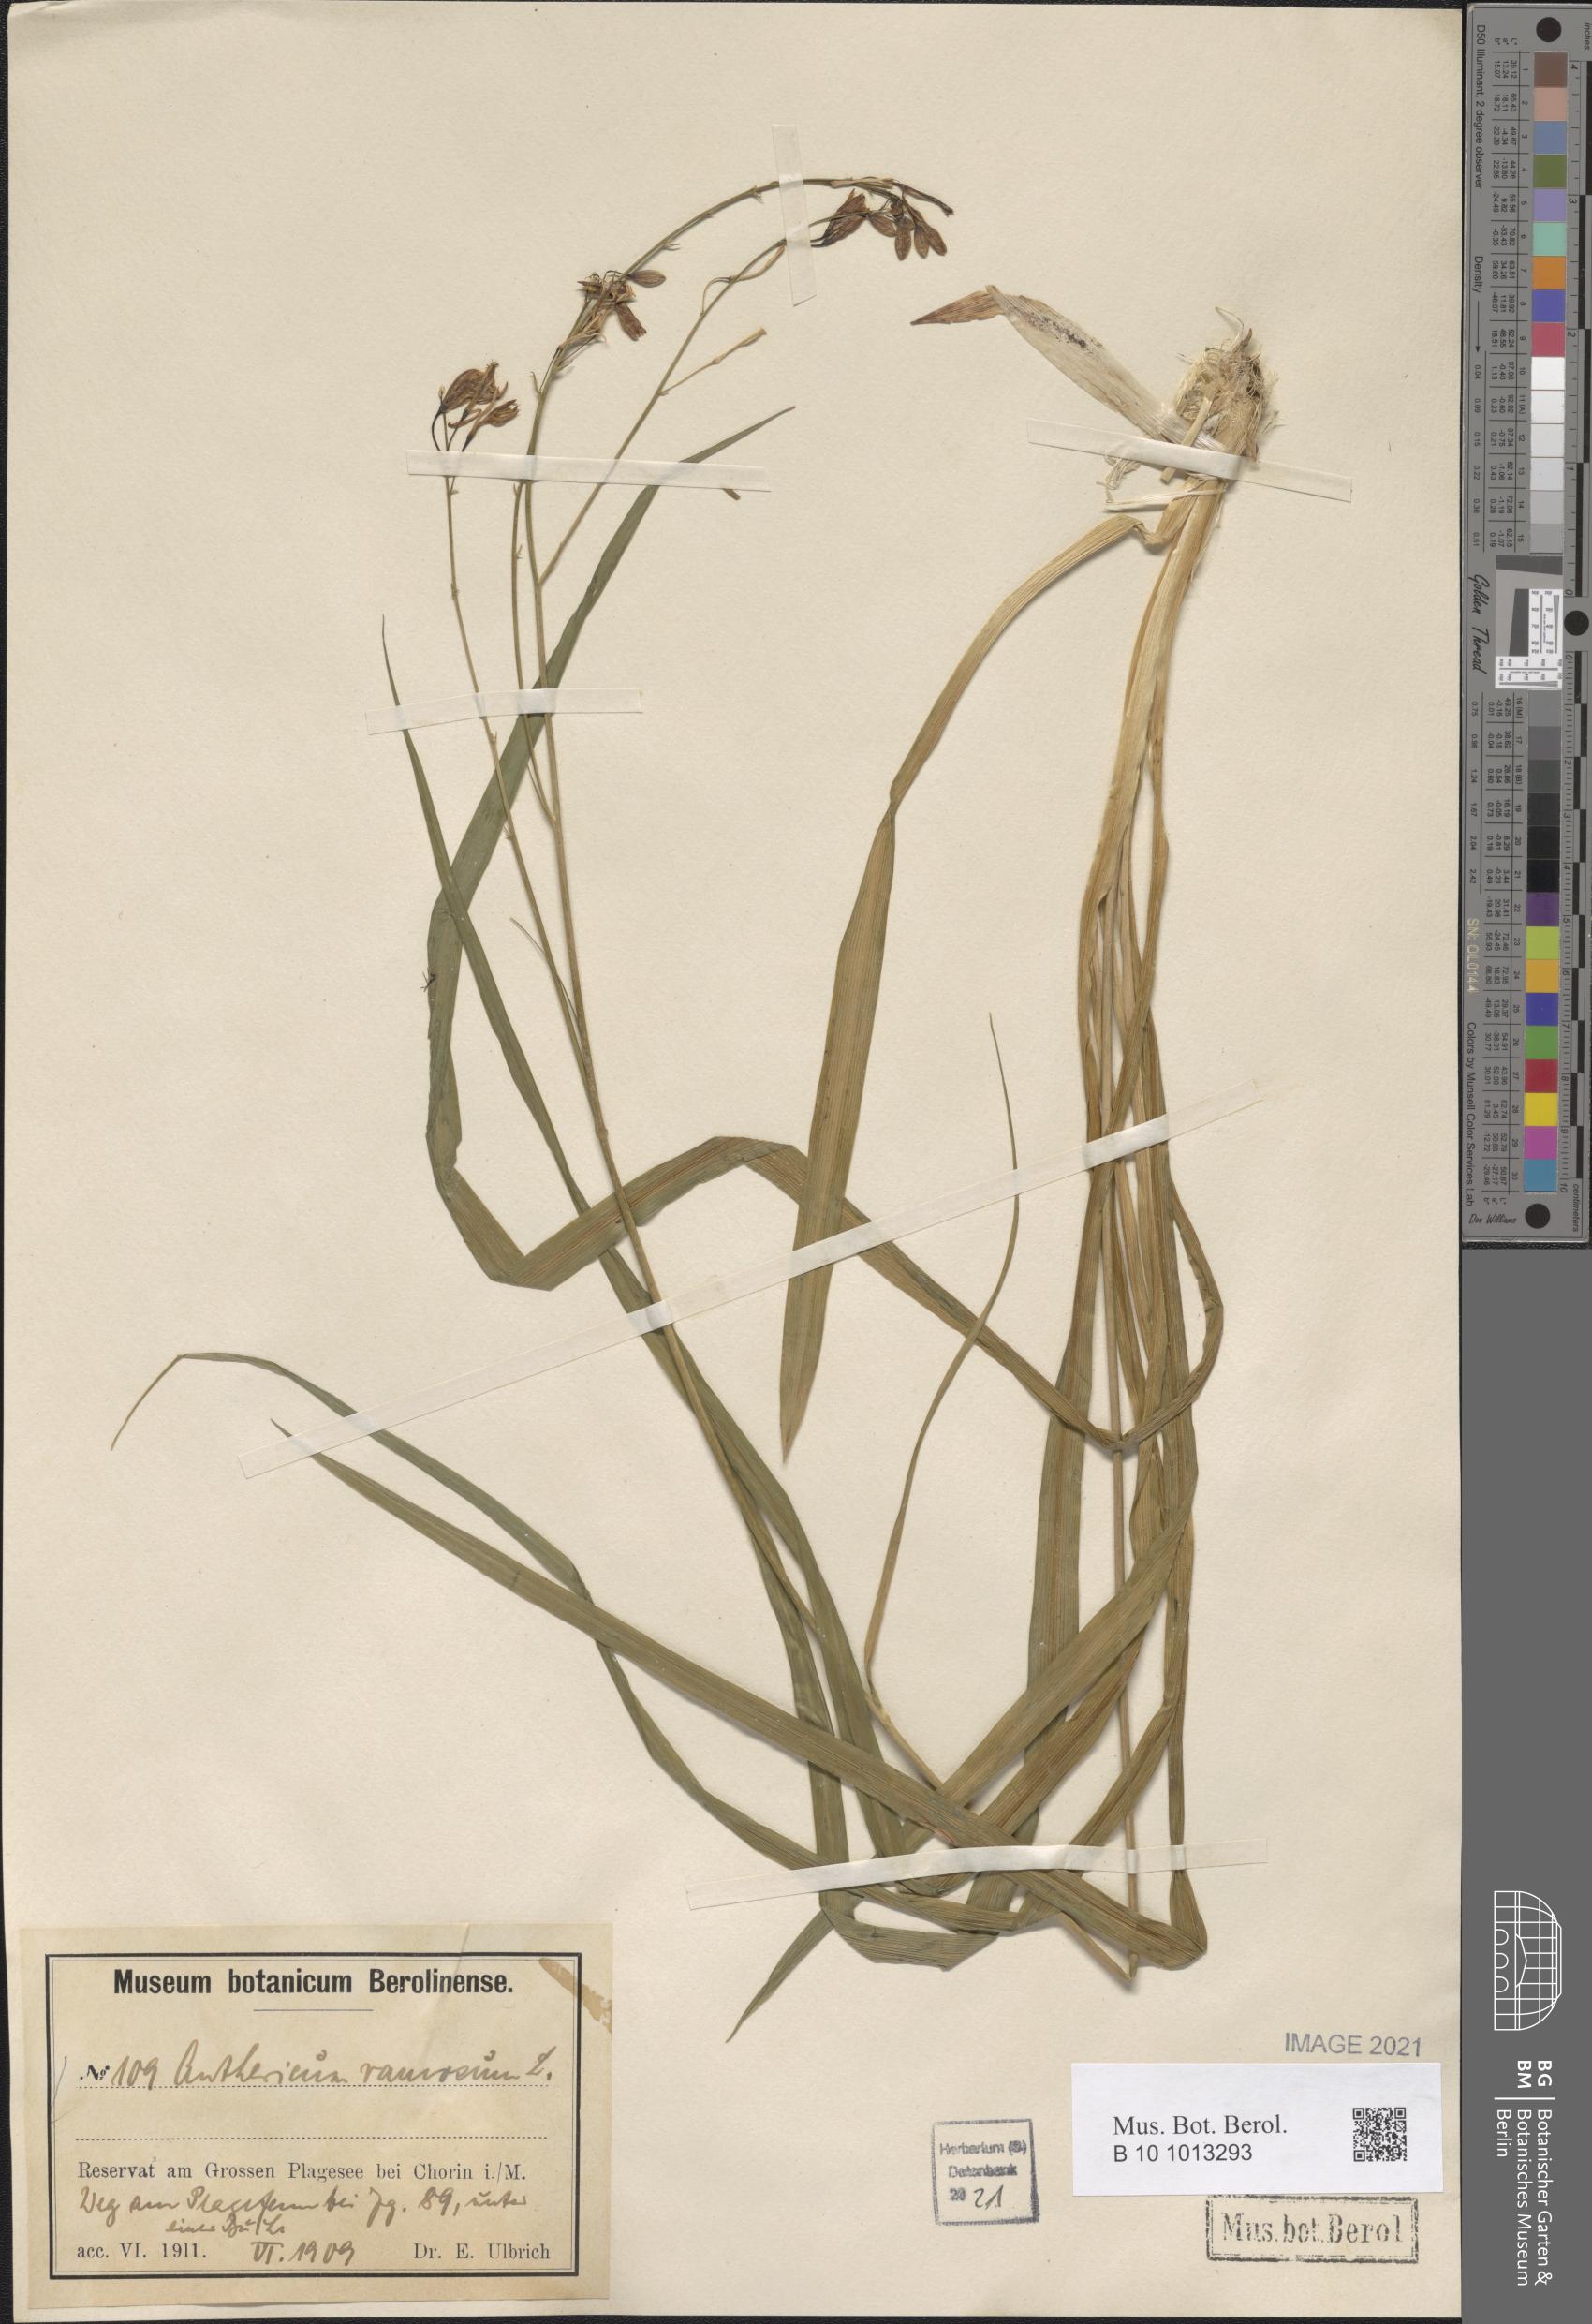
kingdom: Plantae
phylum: Tracheophyta
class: Liliopsida
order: Asparagales
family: Asparagaceae
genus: Anthericum
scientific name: Anthericum ramosum
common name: Branched st. bernard's-lily
